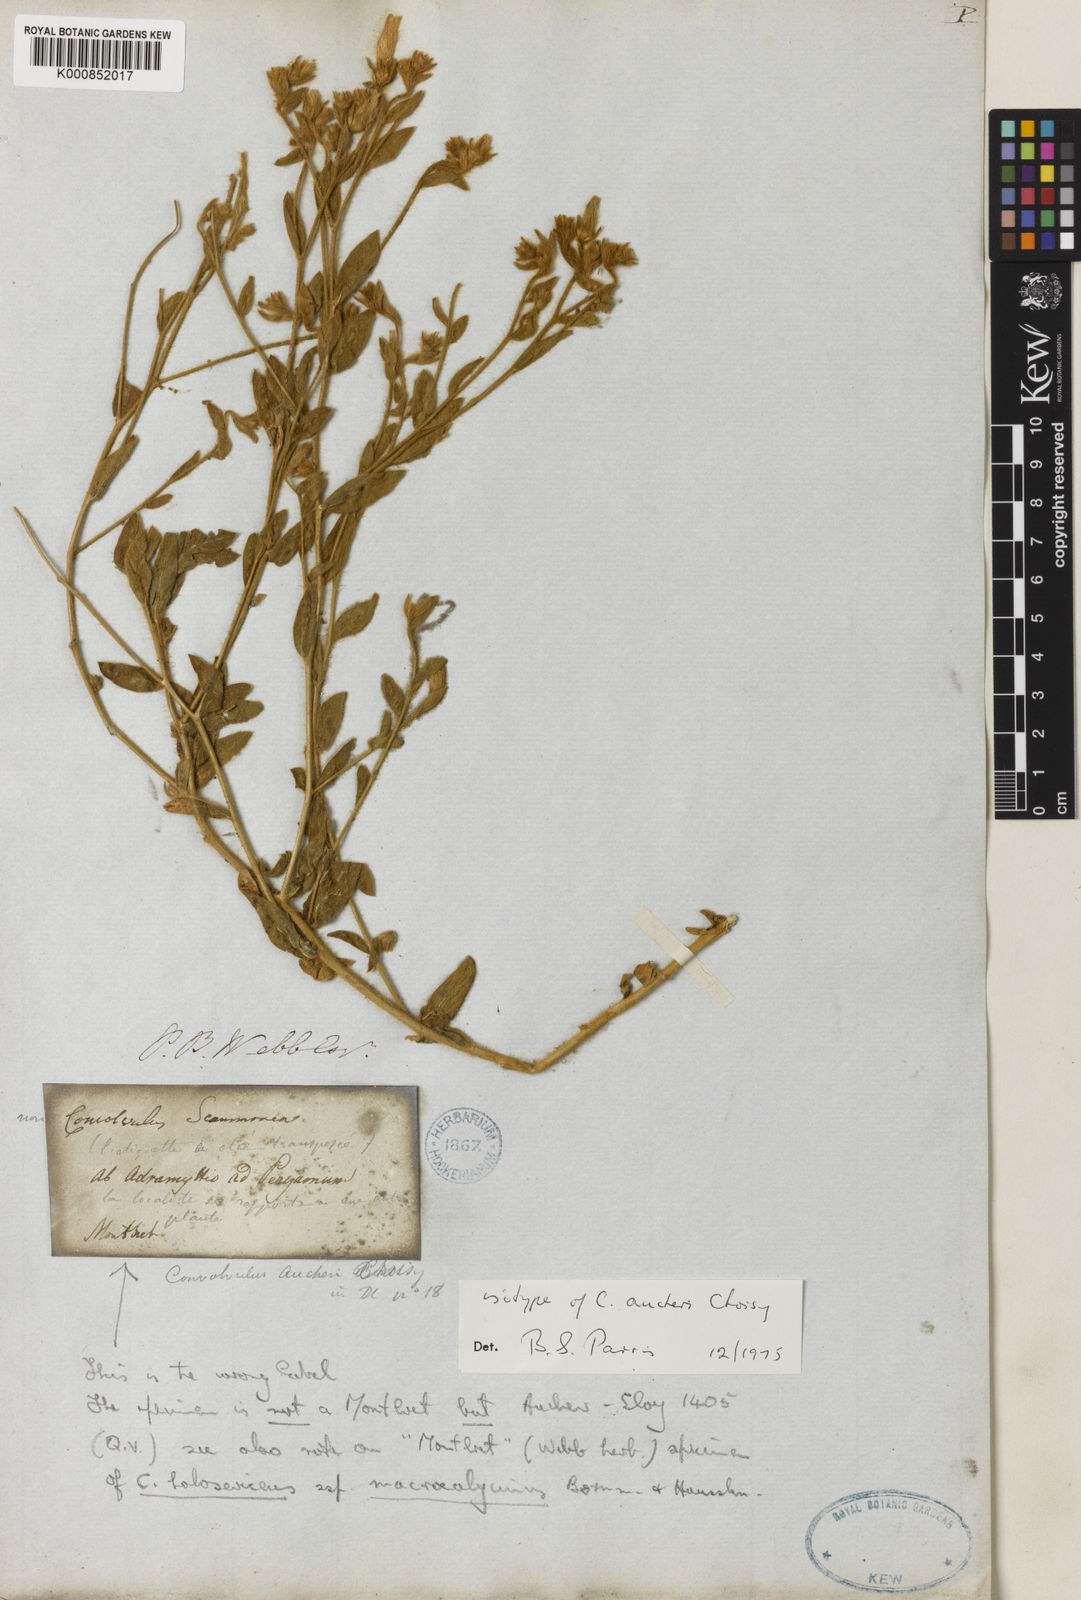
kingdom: Plantae
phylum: Tracheophyta
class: Magnoliopsida
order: Solanales
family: Convolvulaceae
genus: Convolvulus
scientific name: Convolvulus aucheri
